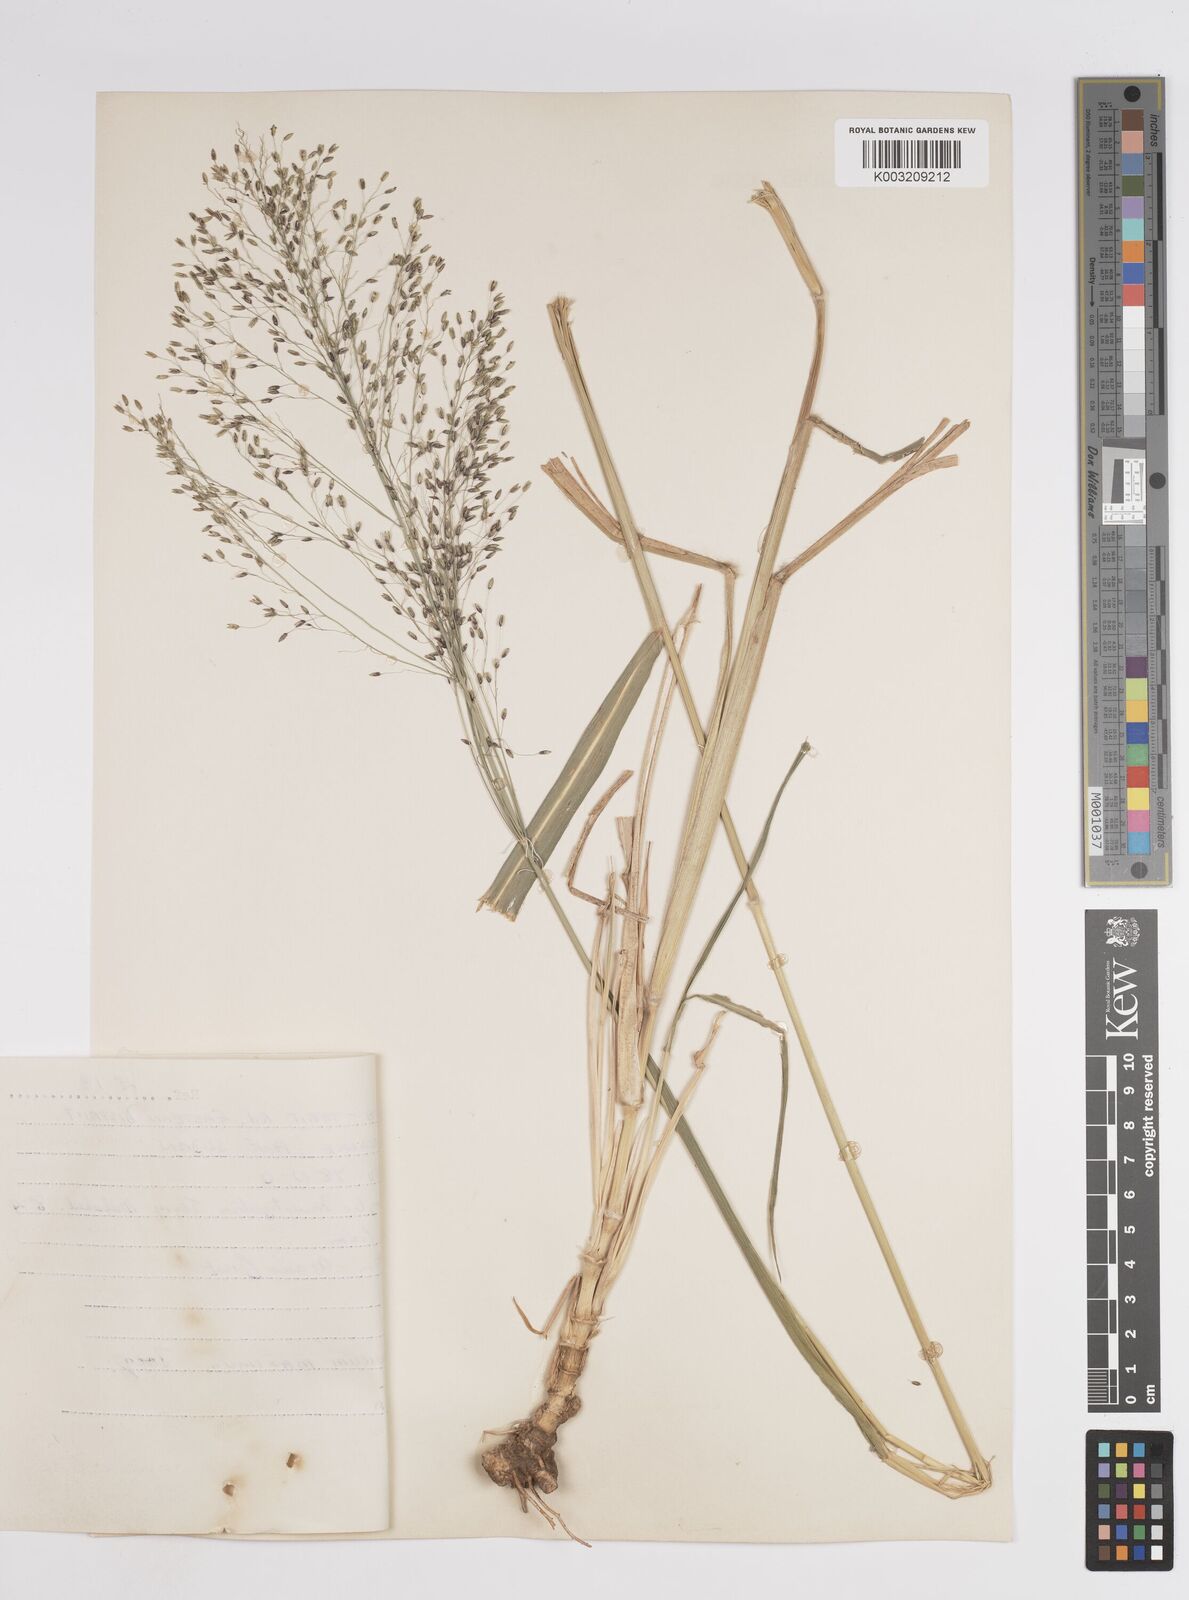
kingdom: Plantae
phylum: Tracheophyta
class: Liliopsida
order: Poales
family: Poaceae
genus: Megathyrsus
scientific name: Megathyrsus maximus
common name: Guineagrass
